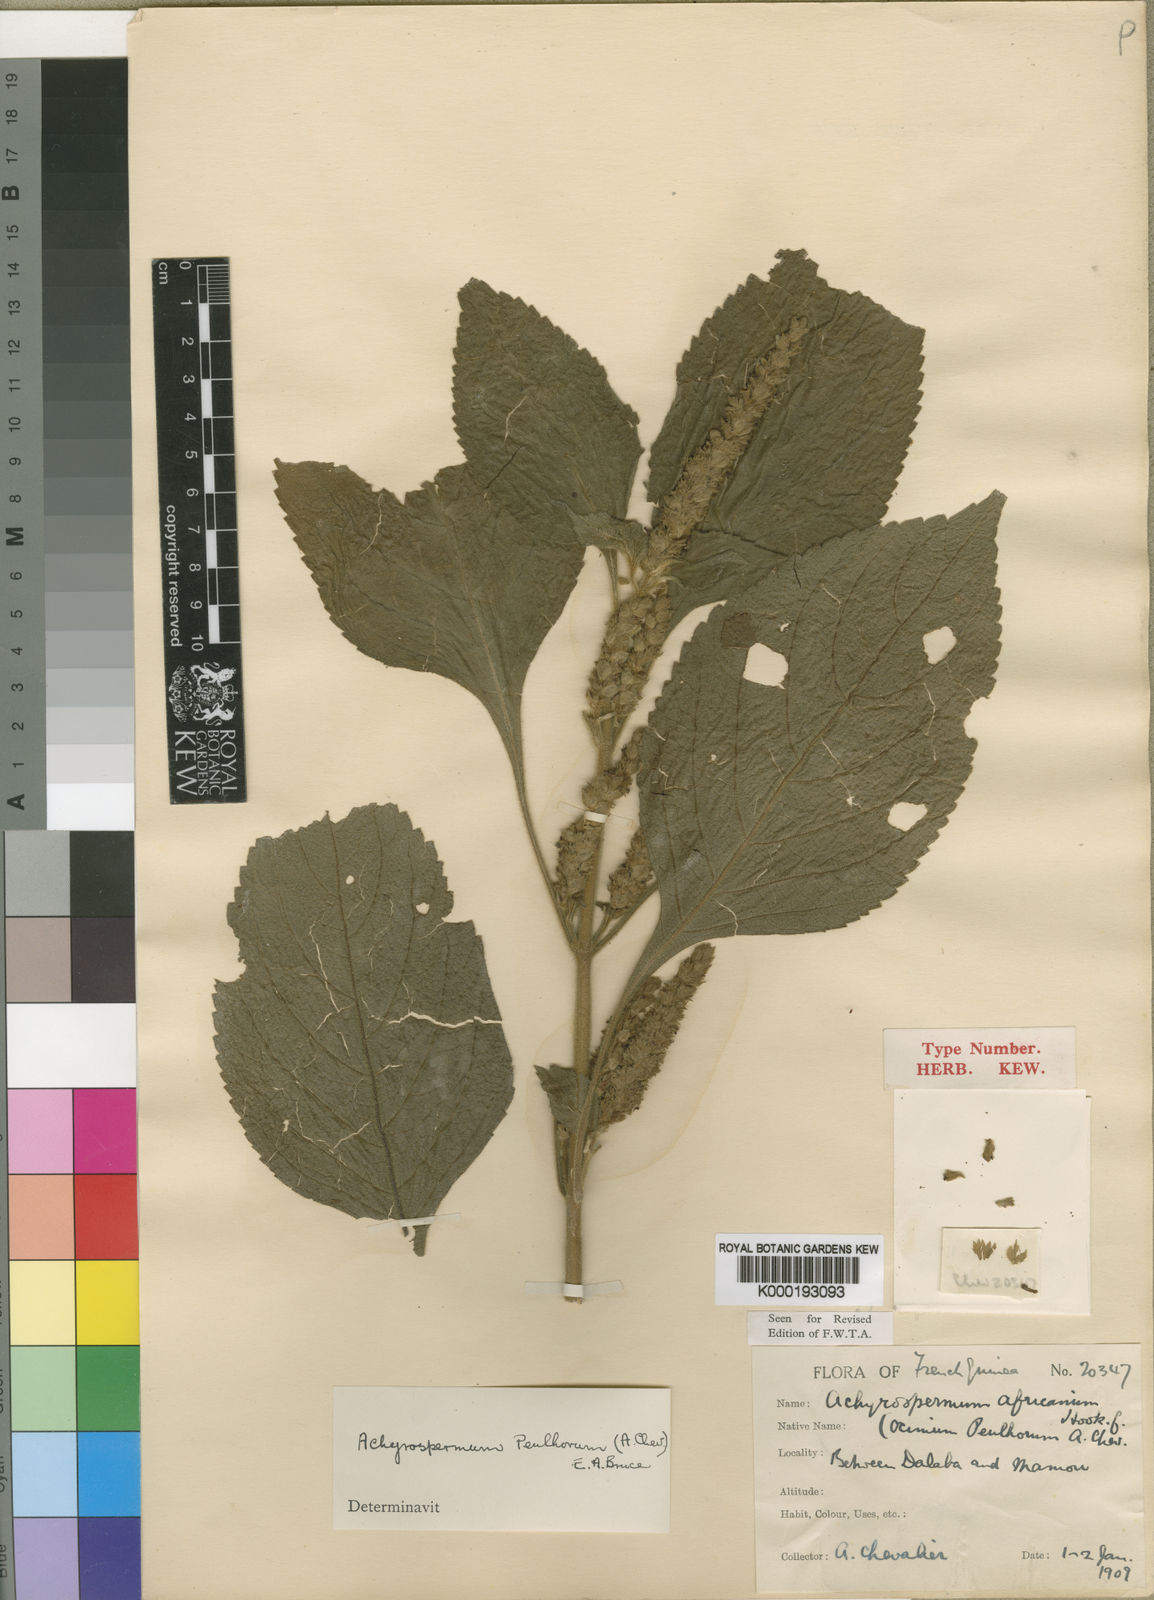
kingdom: Plantae
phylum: Tracheophyta
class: Magnoliopsida
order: Lamiales
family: Lamiaceae
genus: Achyrospermum
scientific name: Achyrospermum africanum
